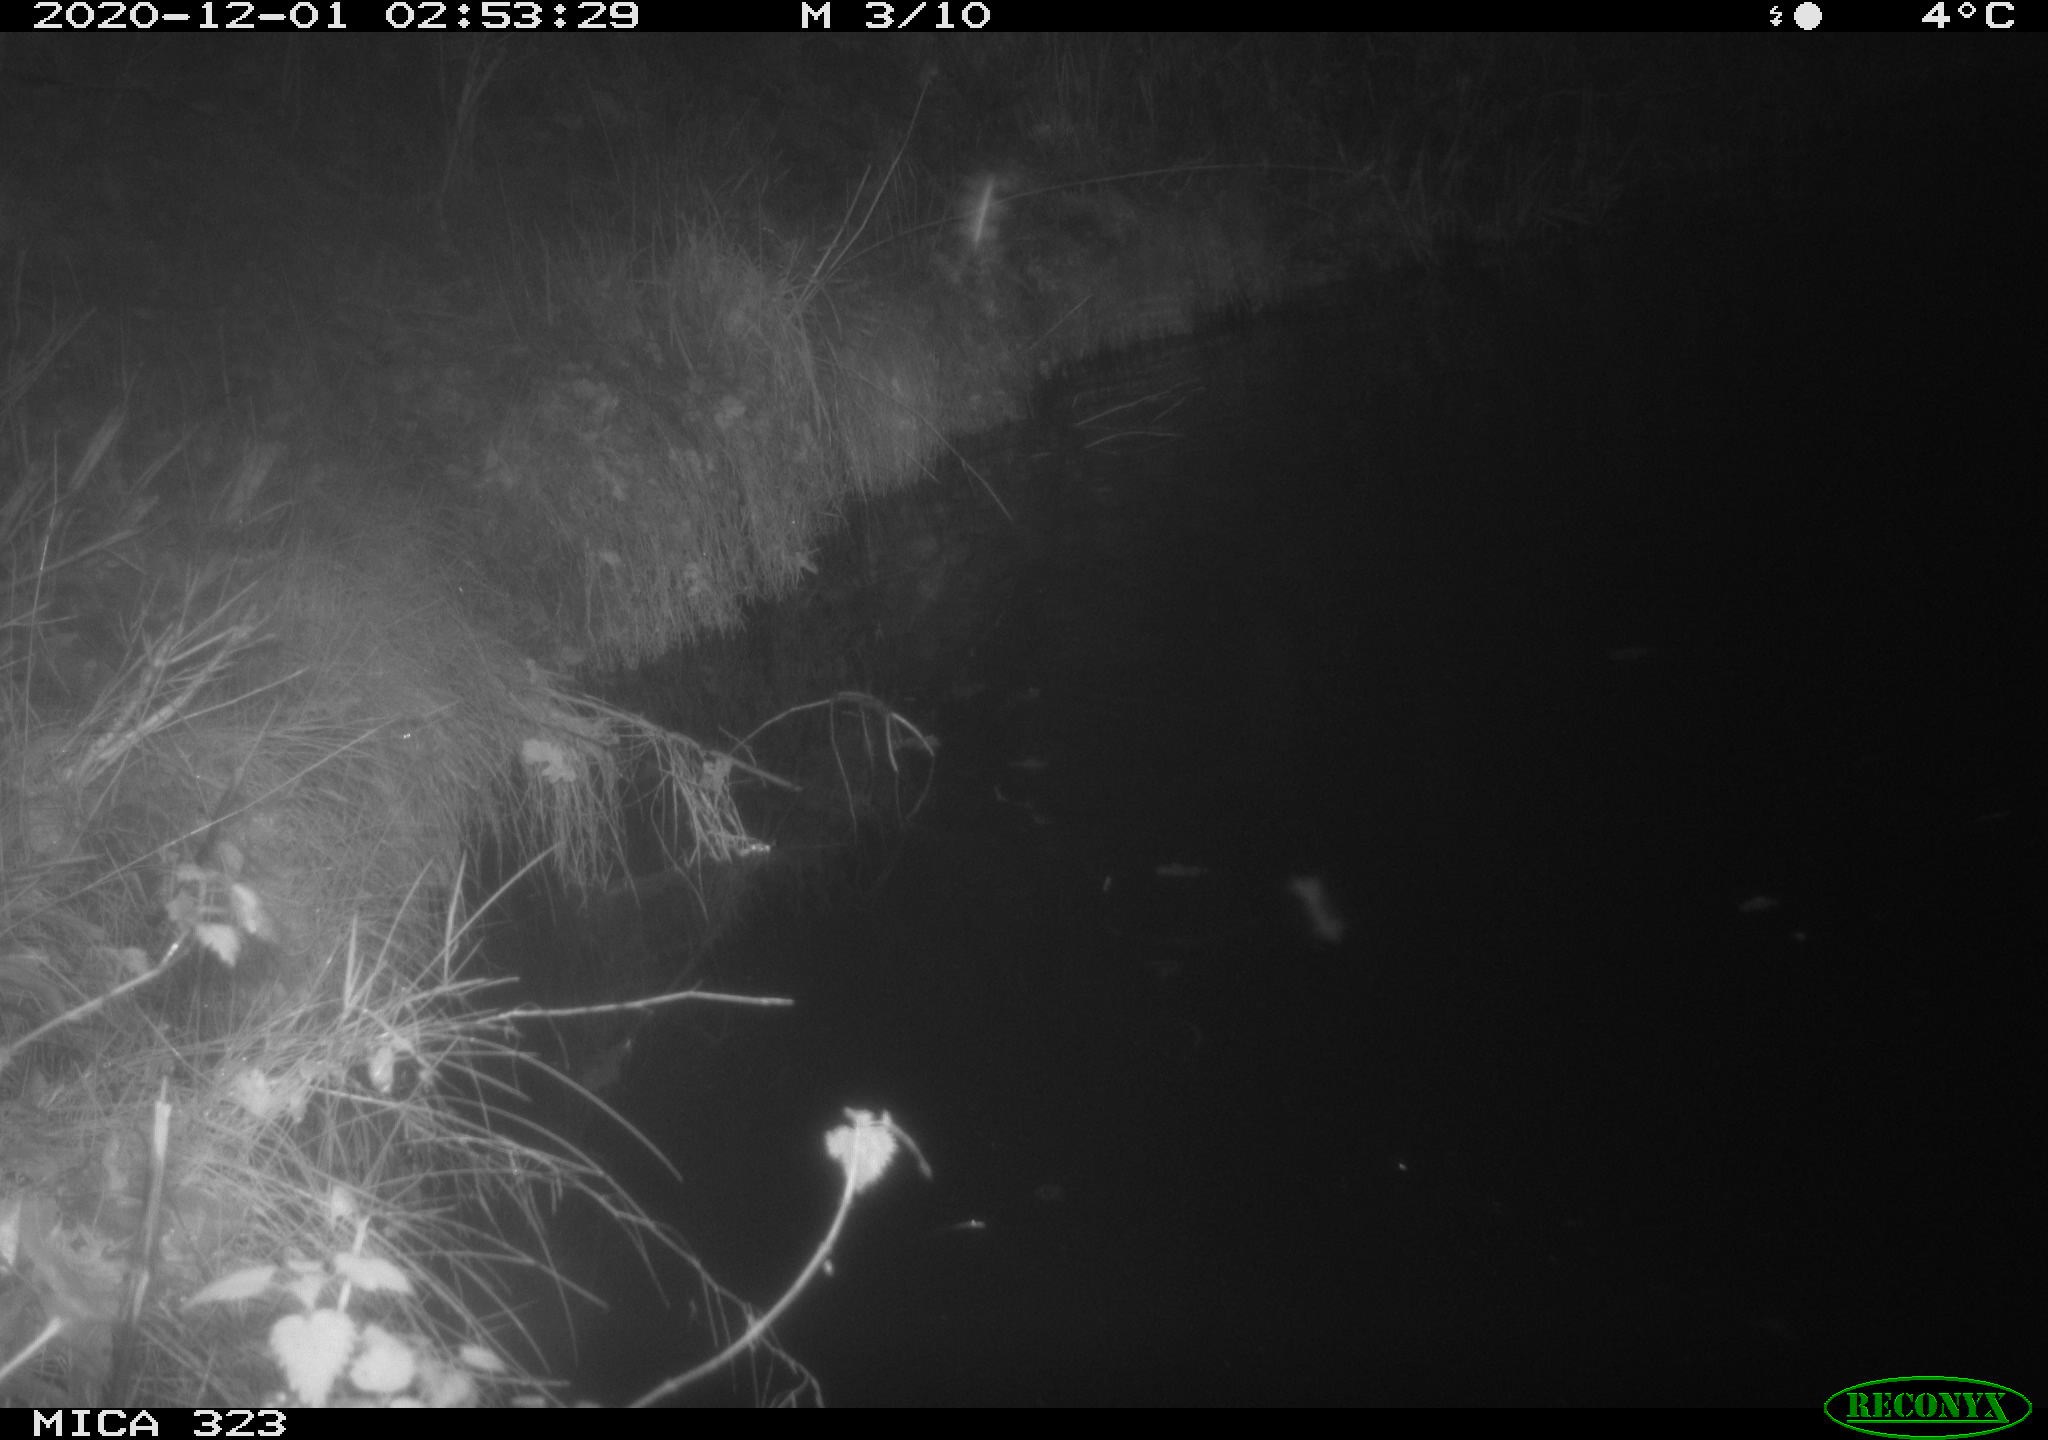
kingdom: Animalia
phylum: Chordata
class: Mammalia
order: Rodentia
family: Myocastoridae
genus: Myocastor
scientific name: Myocastor coypus
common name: Coypu
